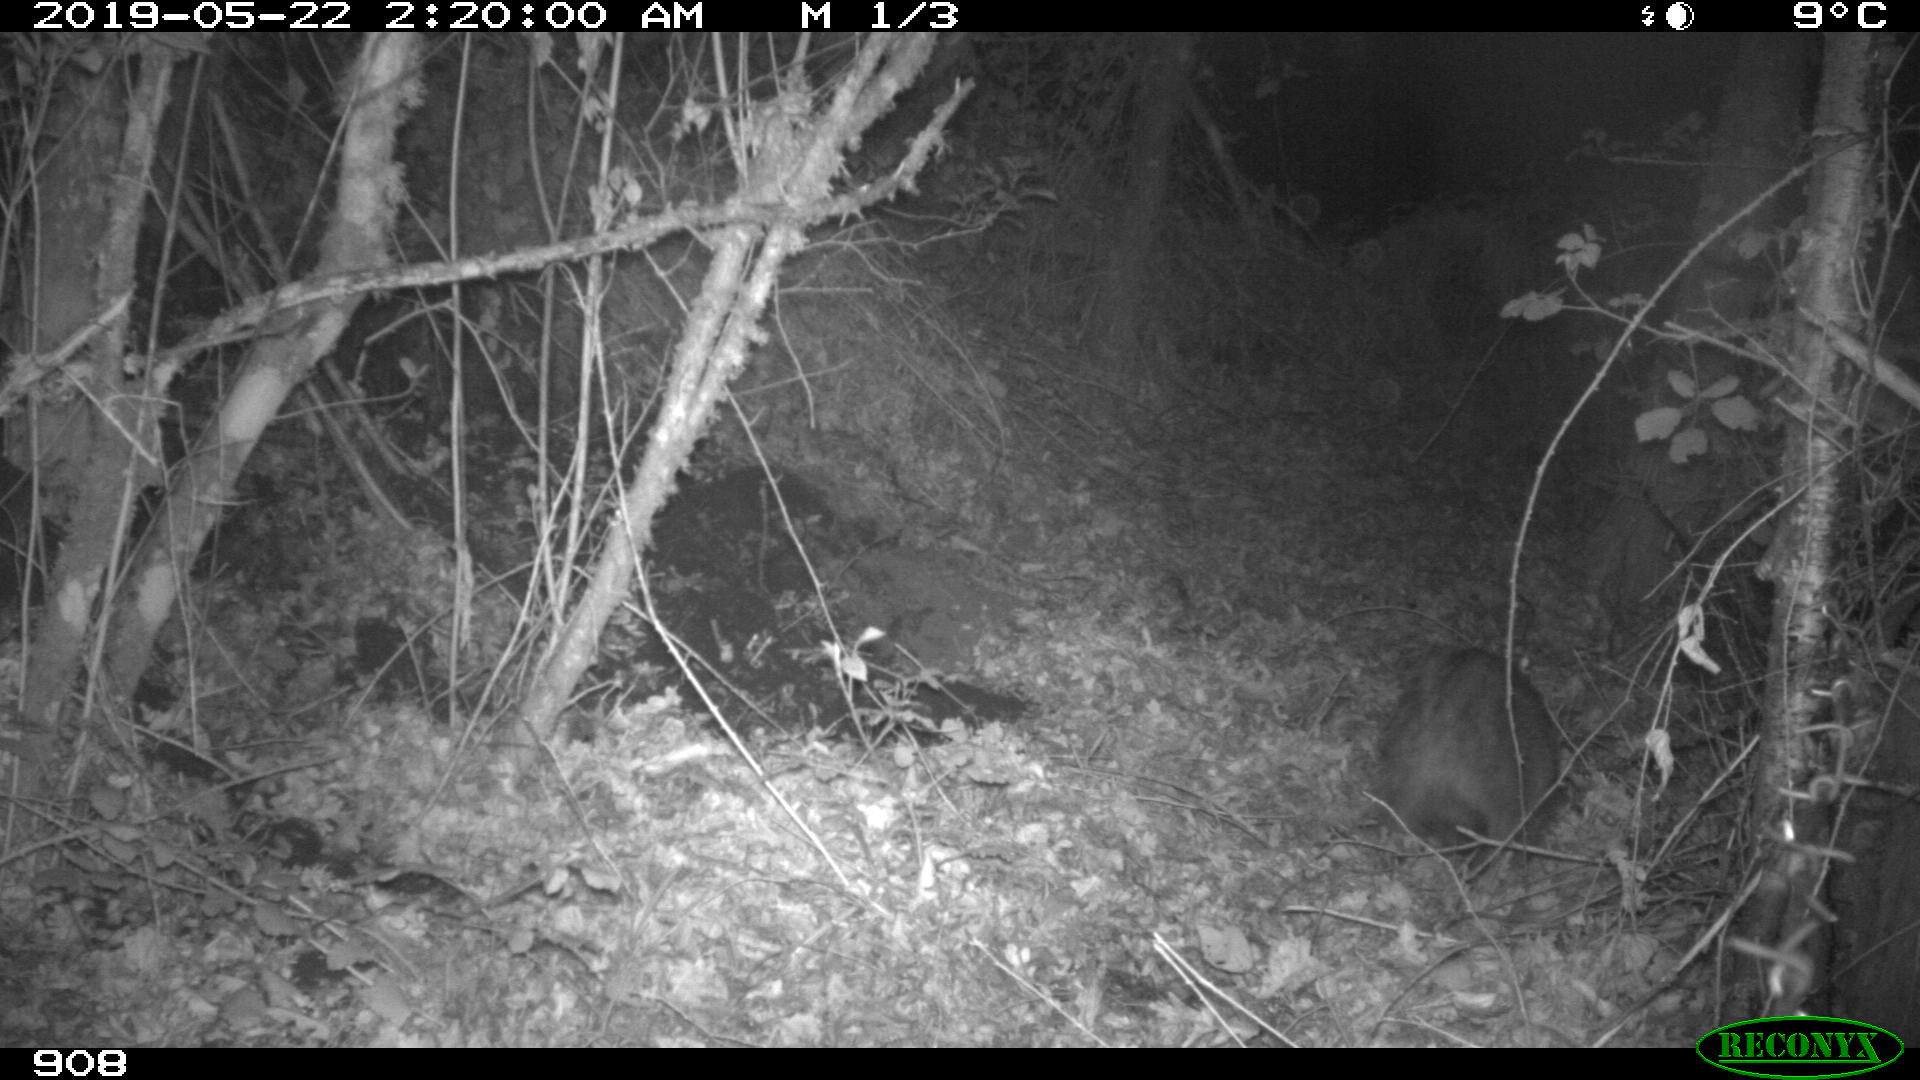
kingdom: Animalia
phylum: Chordata
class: Mammalia
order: Artiodactyla
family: Suidae
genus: Sus
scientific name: Sus scrofa
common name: Wild boar
